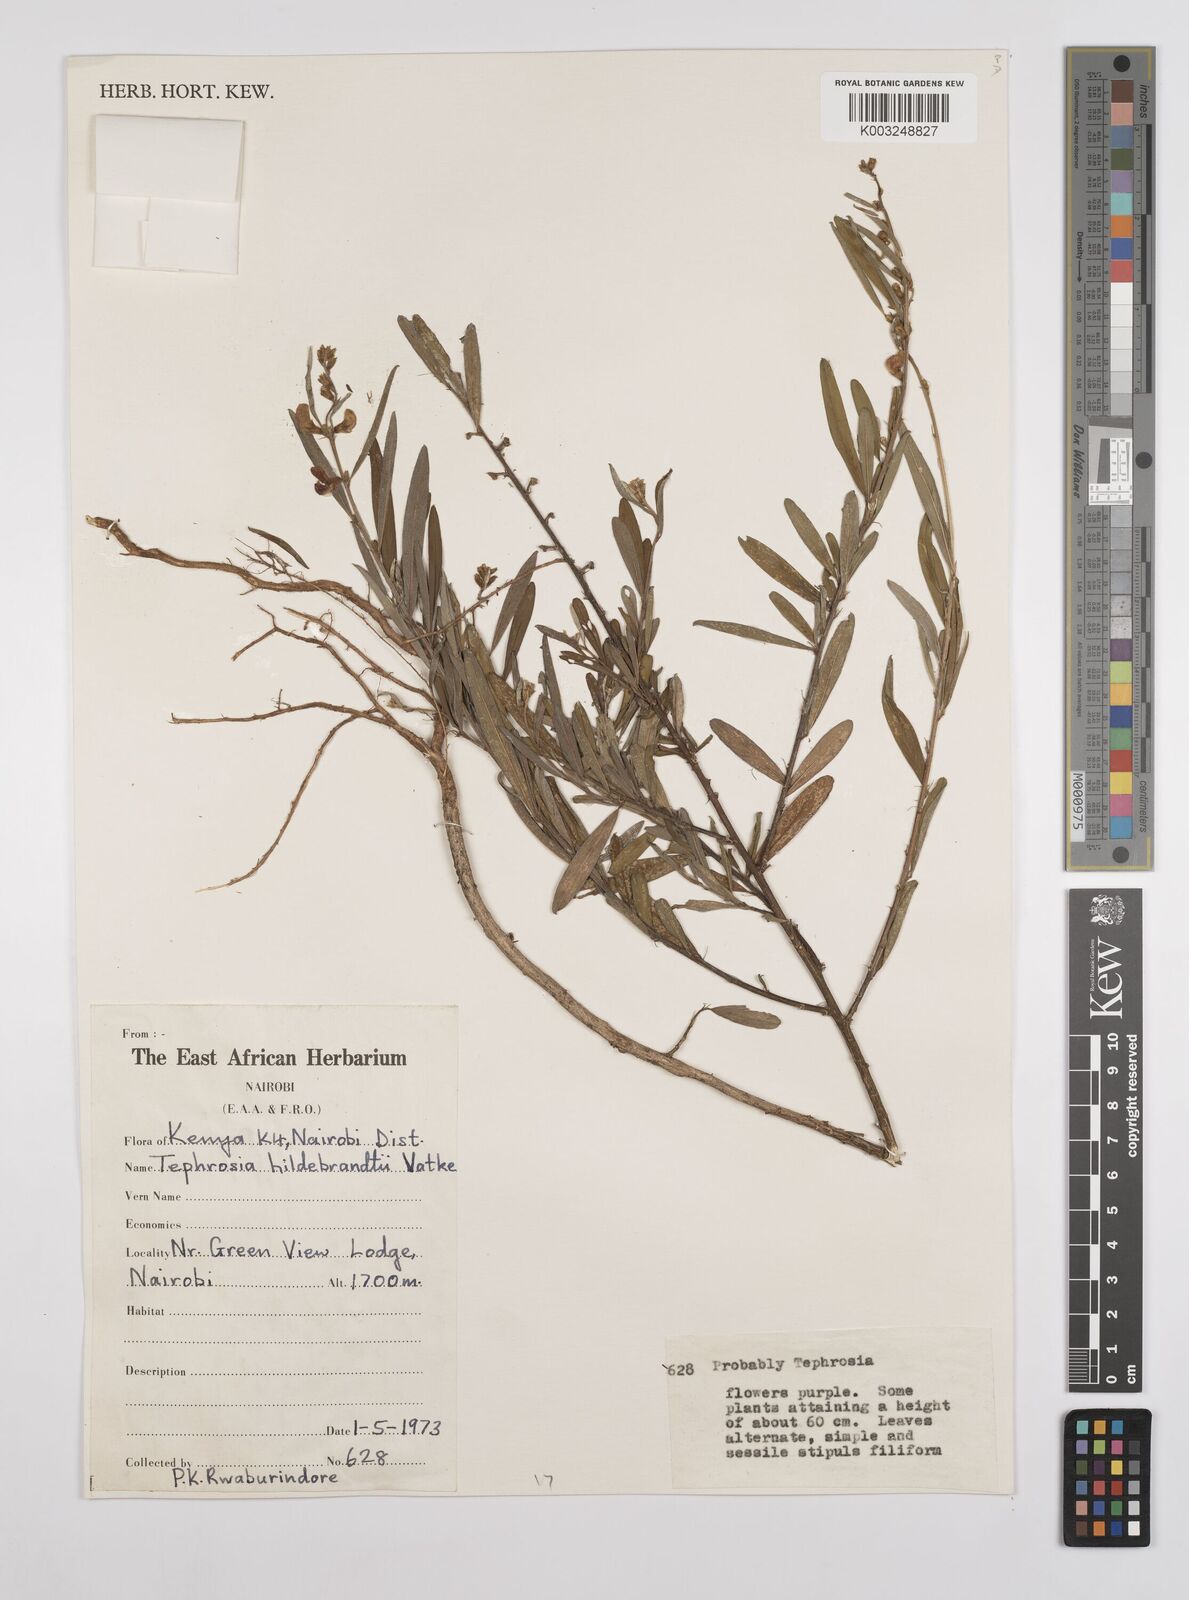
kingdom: Plantae
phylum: Tracheophyta
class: Magnoliopsida
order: Fabales
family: Fabaceae
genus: Tephrosia
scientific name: Tephrosia hildebrandtii
